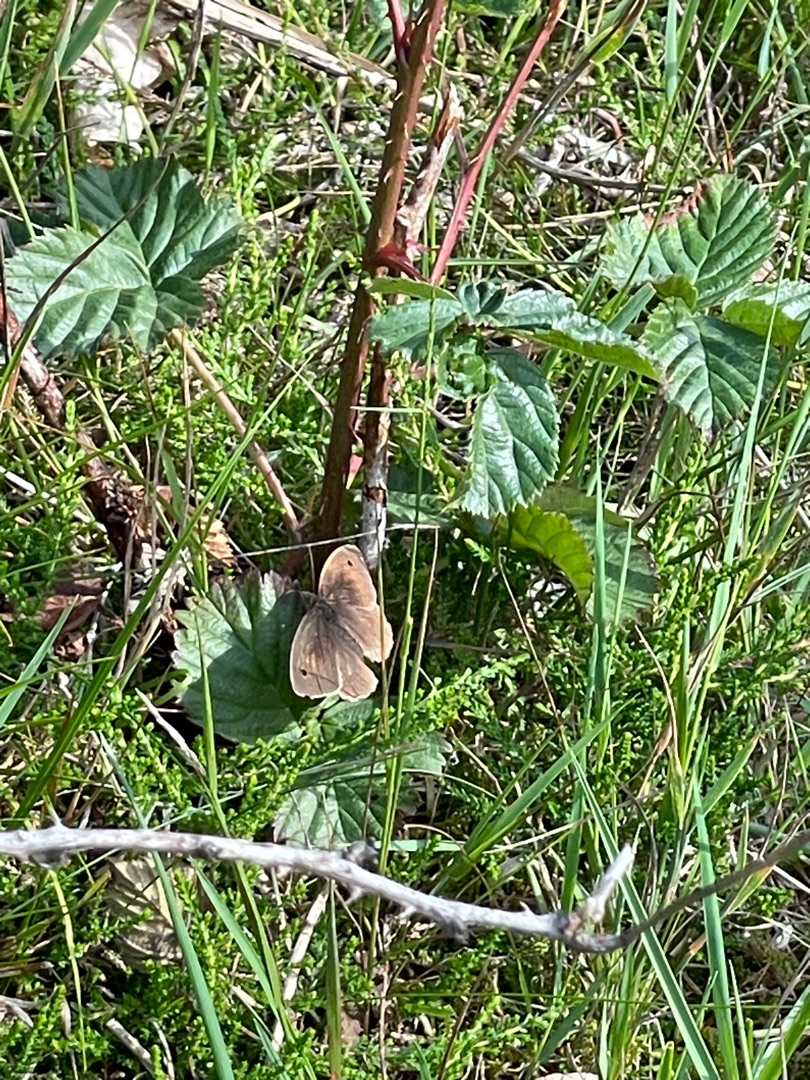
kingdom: Animalia
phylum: Arthropoda
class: Insecta
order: Lepidoptera
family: Nymphalidae
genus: Maniola
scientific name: Maniola jurtina
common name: Græsrandøje
